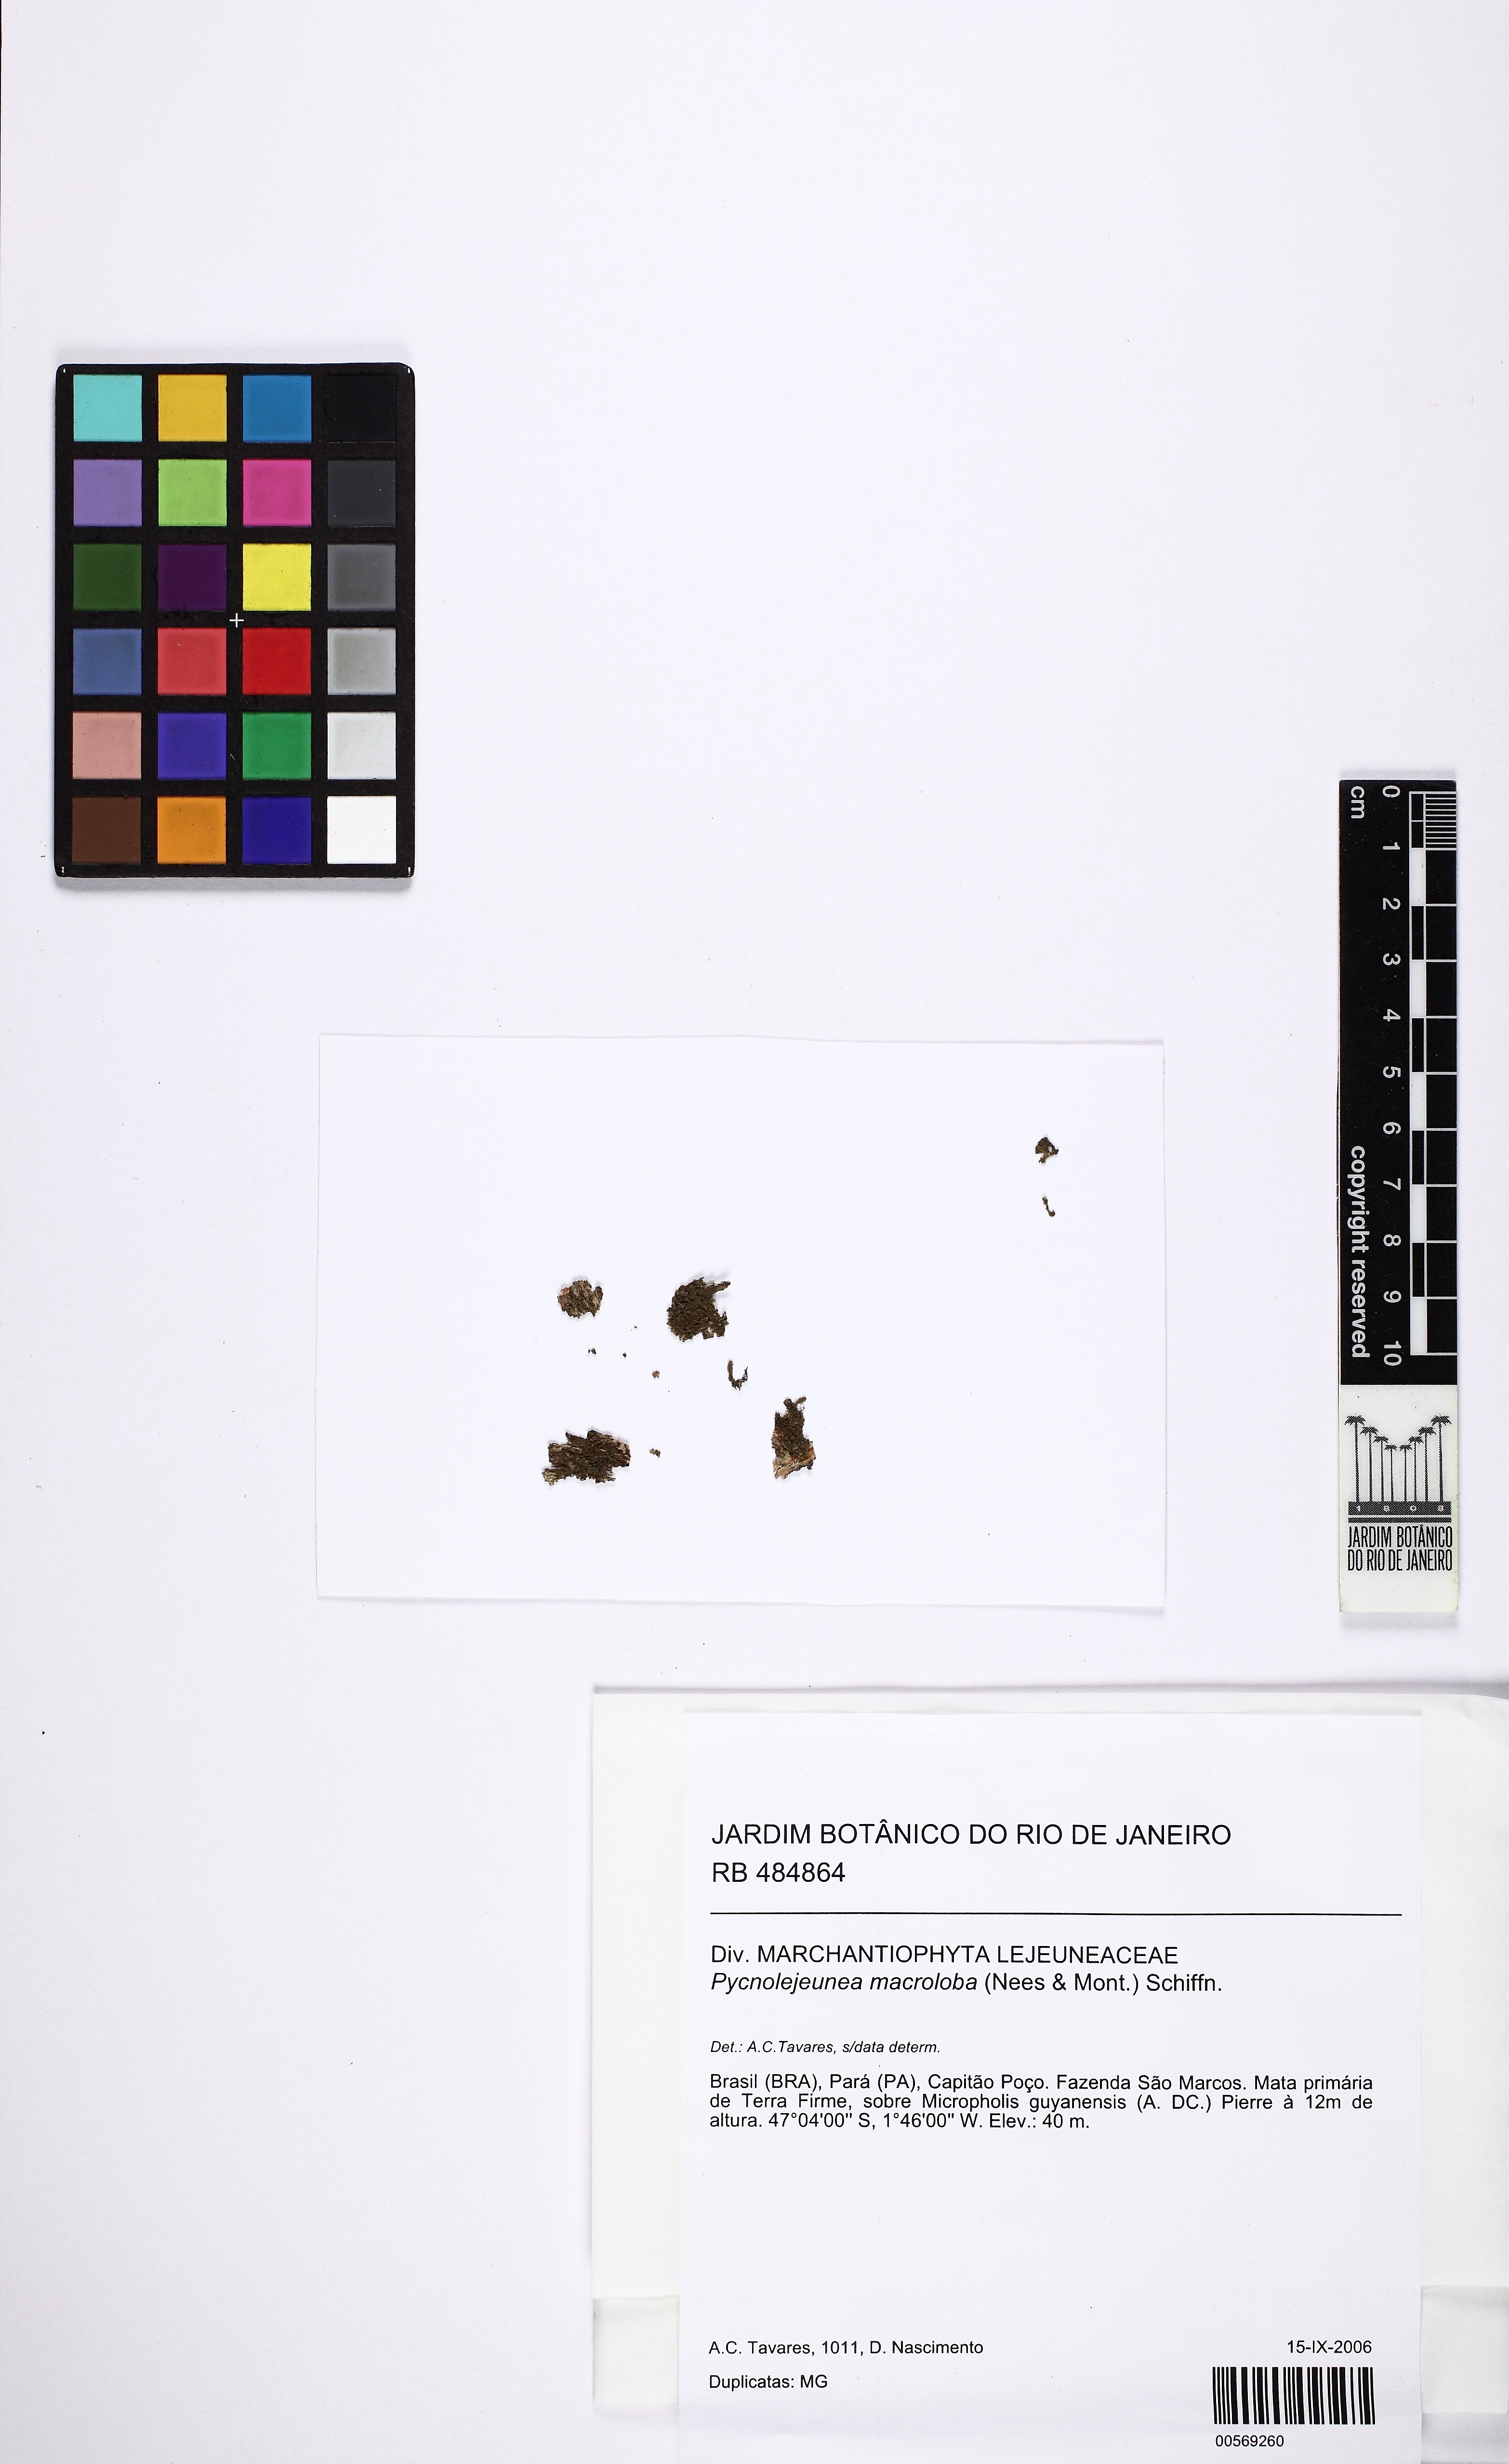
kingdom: Plantae
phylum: Marchantiophyta
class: Jungermanniopsida
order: Porellales
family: Lejeuneaceae
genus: Pycnolejeunea
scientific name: Pycnolejeunea macroloba
